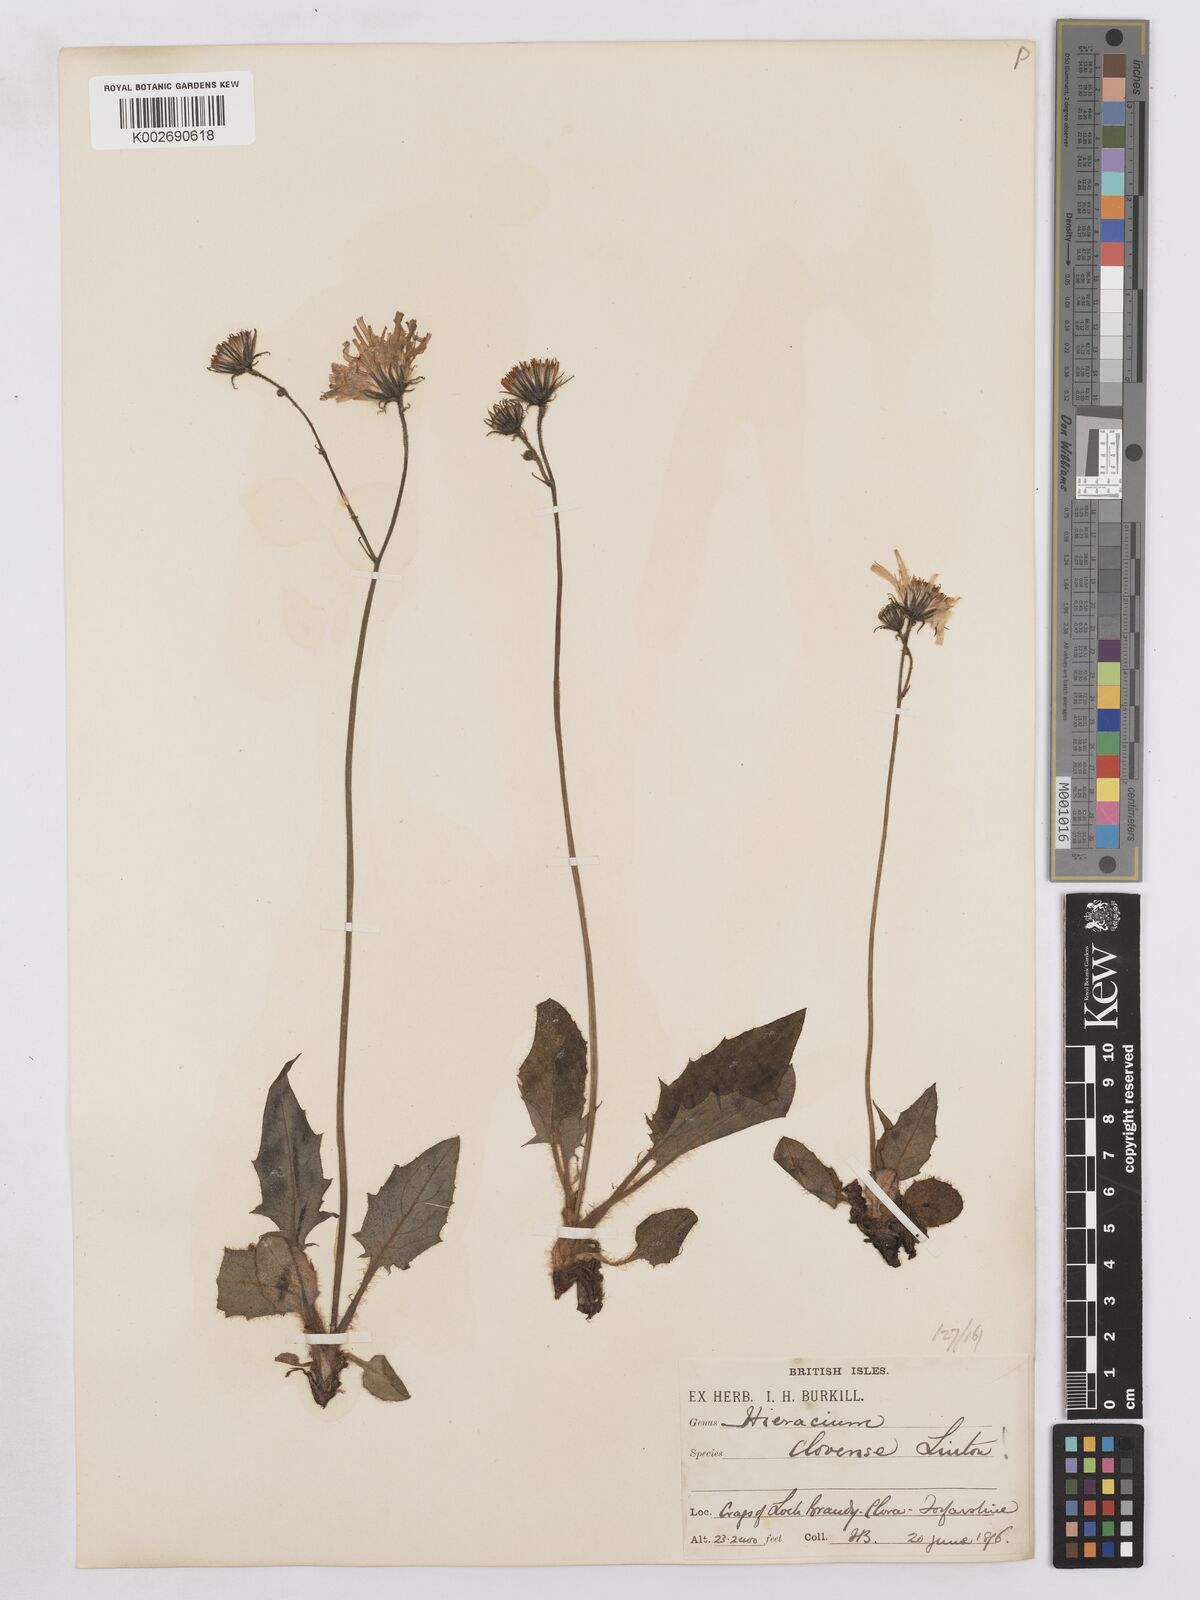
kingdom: Plantae
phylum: Tracheophyta
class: Magnoliopsida
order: Asterales
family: Asteraceae
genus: Hieracium
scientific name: Hieracium clovense
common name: Clova hawkweed
